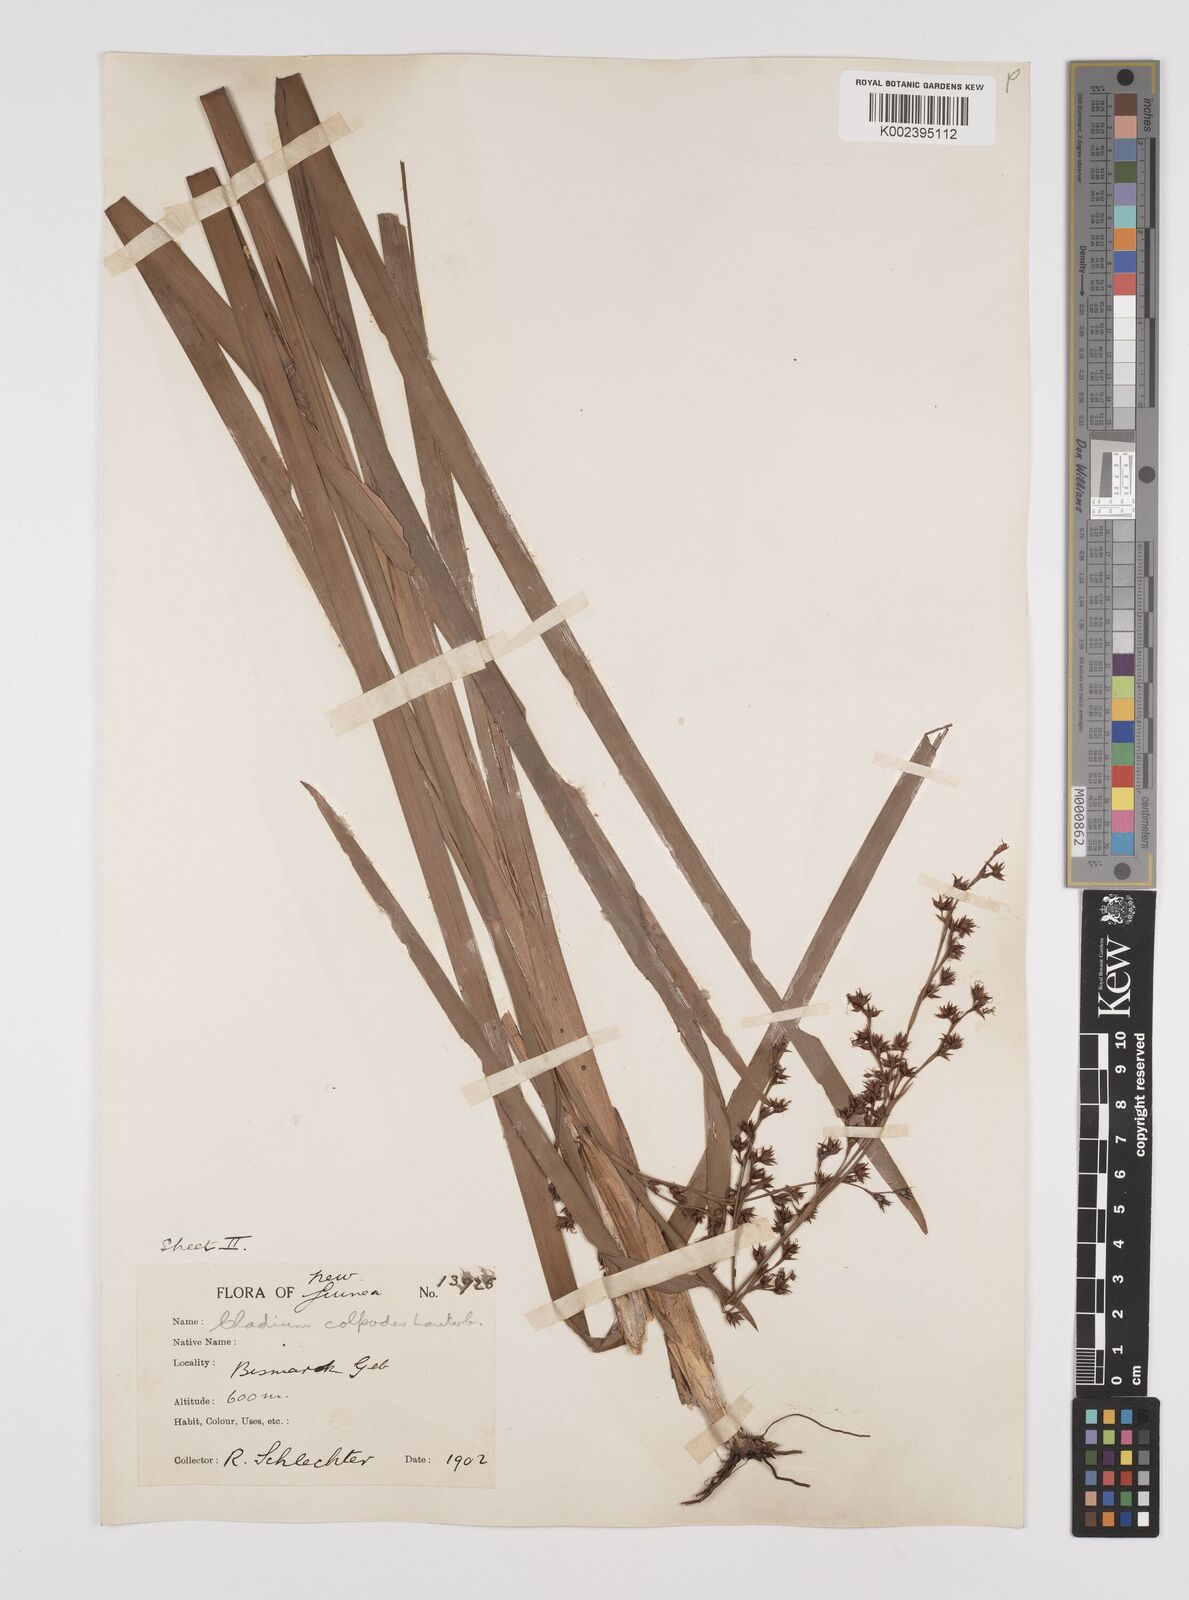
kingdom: Plantae
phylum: Tracheophyta
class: Liliopsida
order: Poales
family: Cyperaceae
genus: Machaerina
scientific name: Machaerina glomerata
